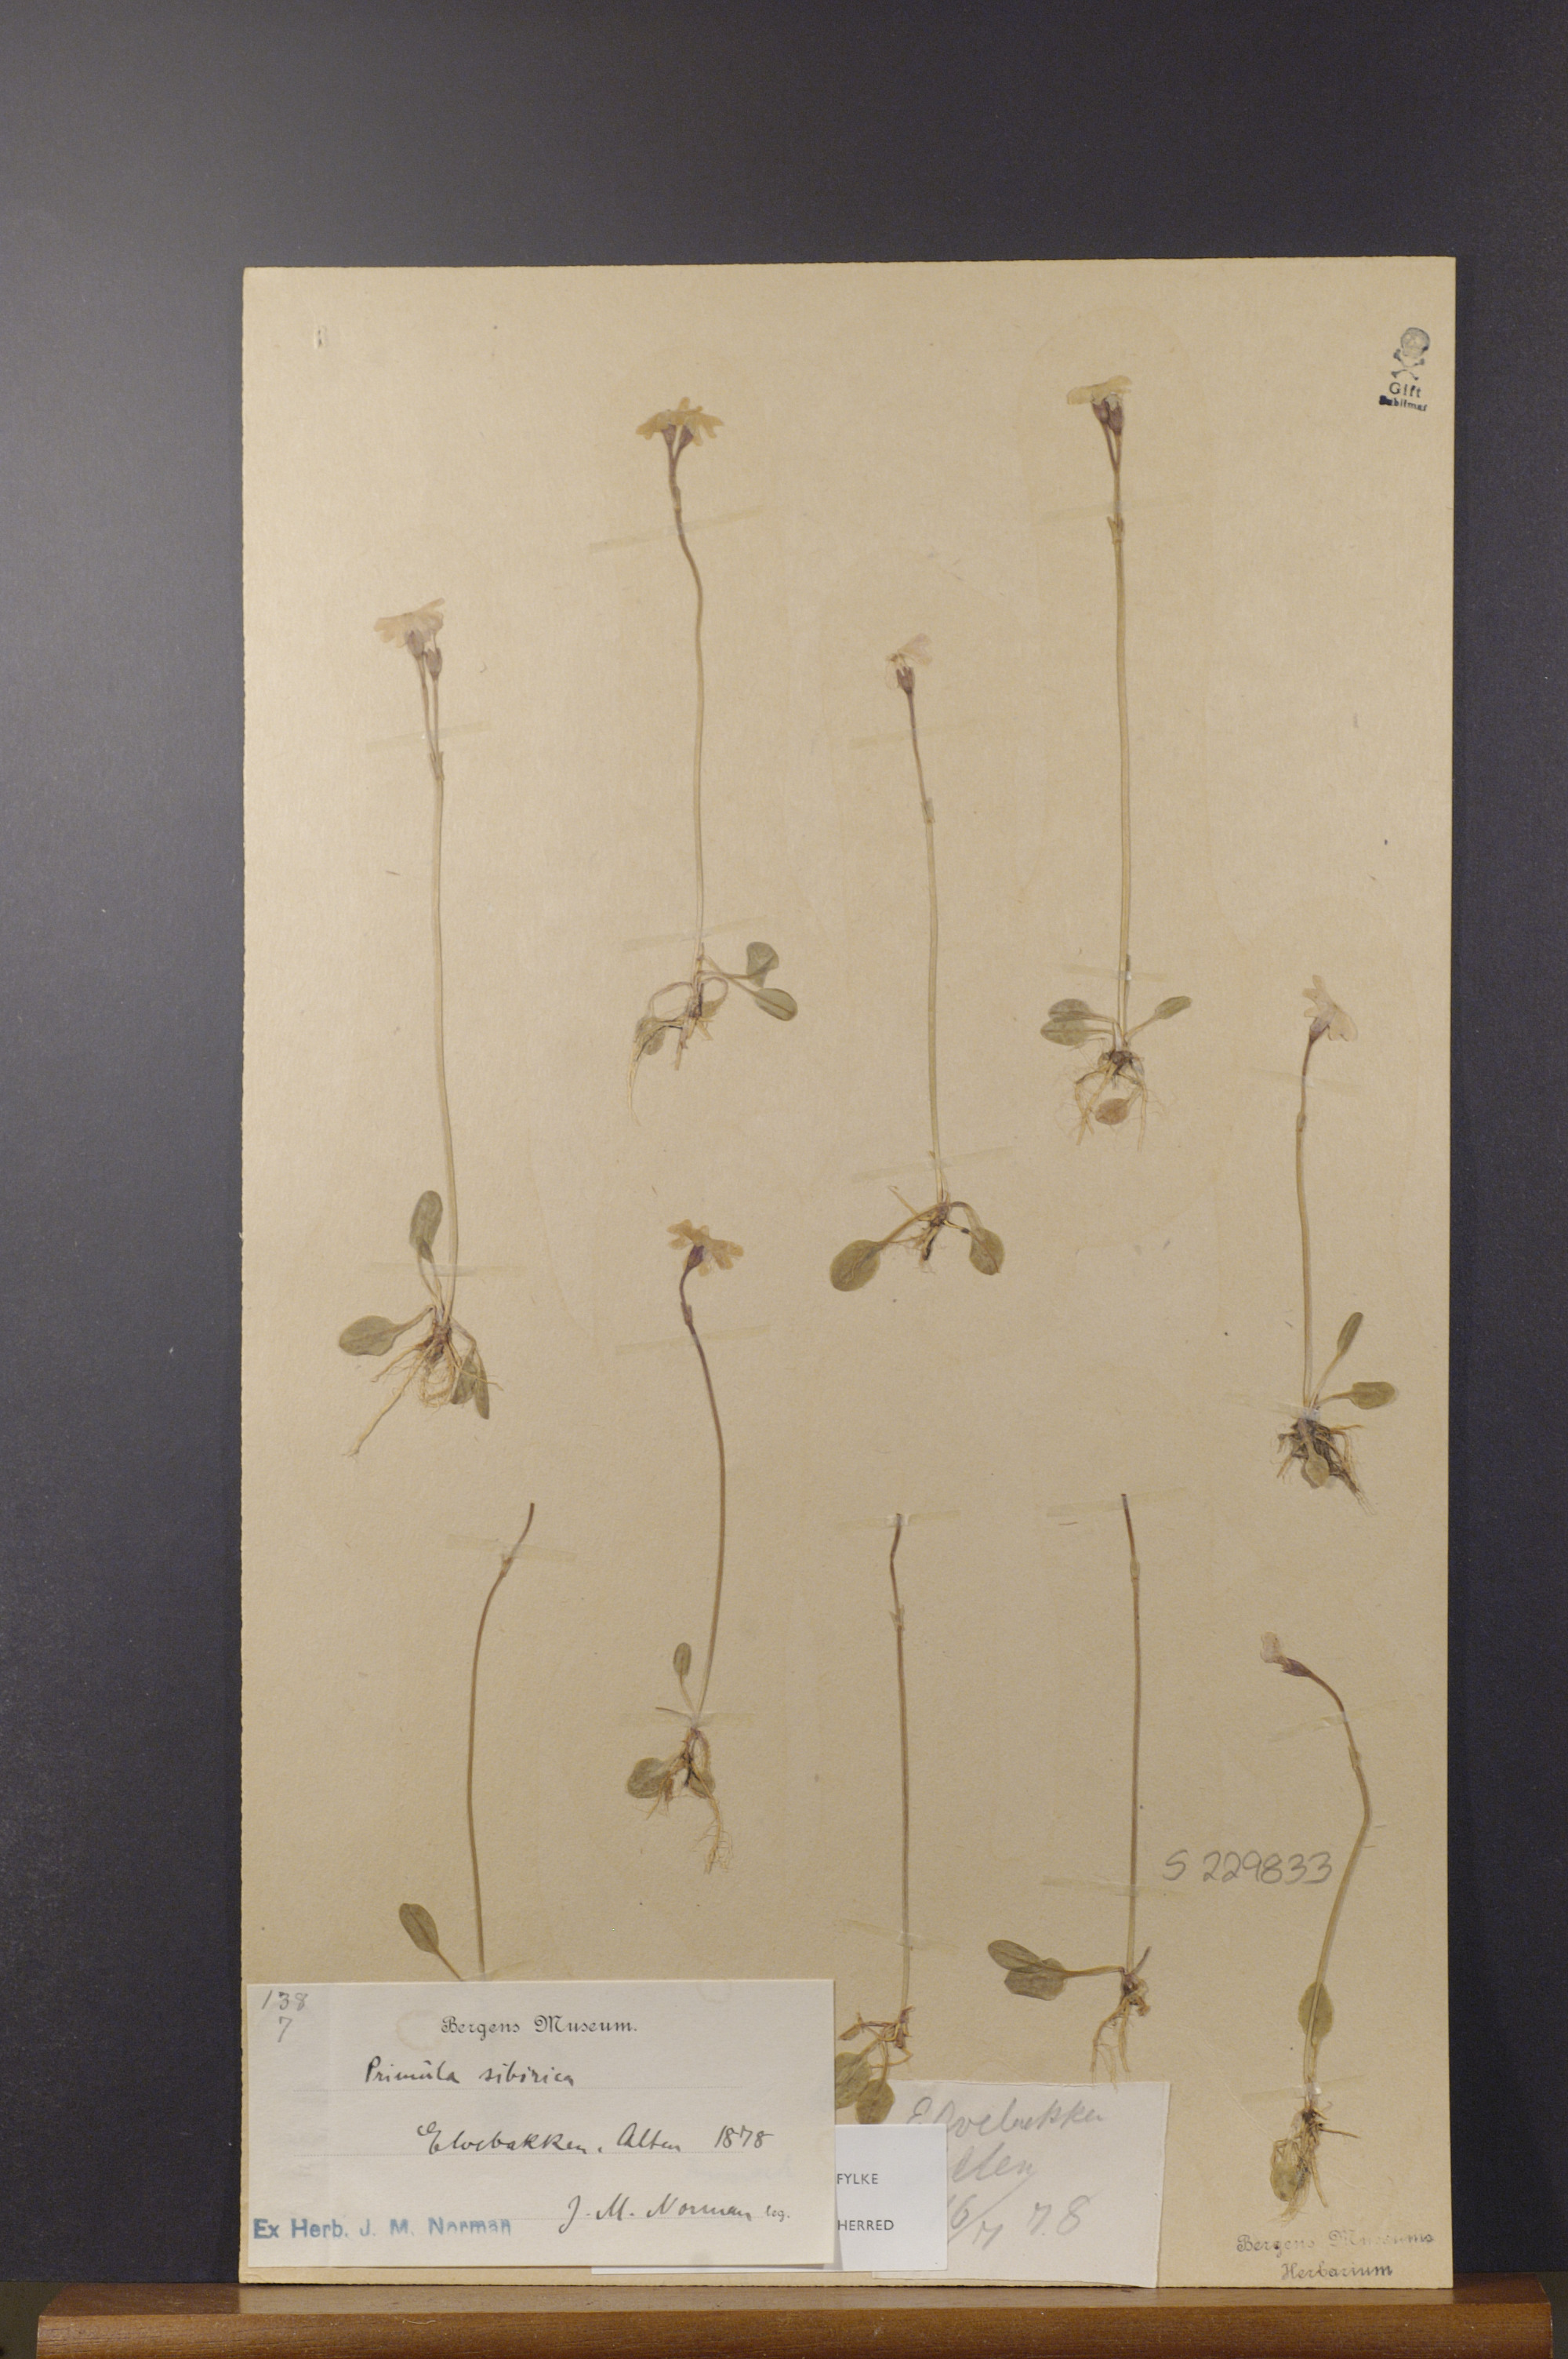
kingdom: Plantae
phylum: Tracheophyta
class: Magnoliopsida
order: Ericales
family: Primulaceae
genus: Primula
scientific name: Primula nutans
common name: Siberian primrose
